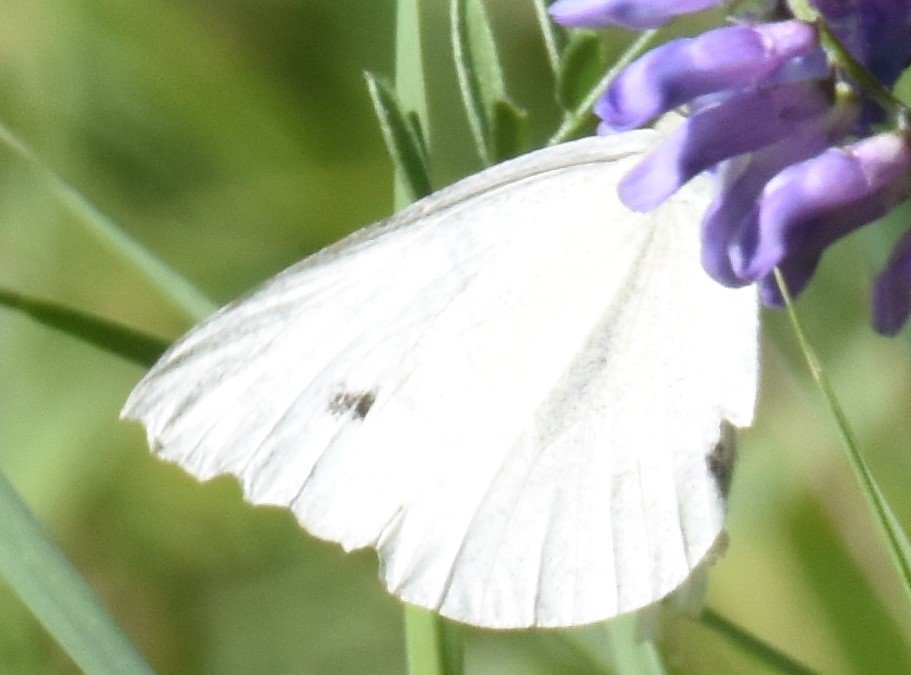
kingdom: Animalia
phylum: Arthropoda
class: Insecta
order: Lepidoptera
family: Pieridae
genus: Pieris
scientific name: Pieris rapae
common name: Cabbage White
